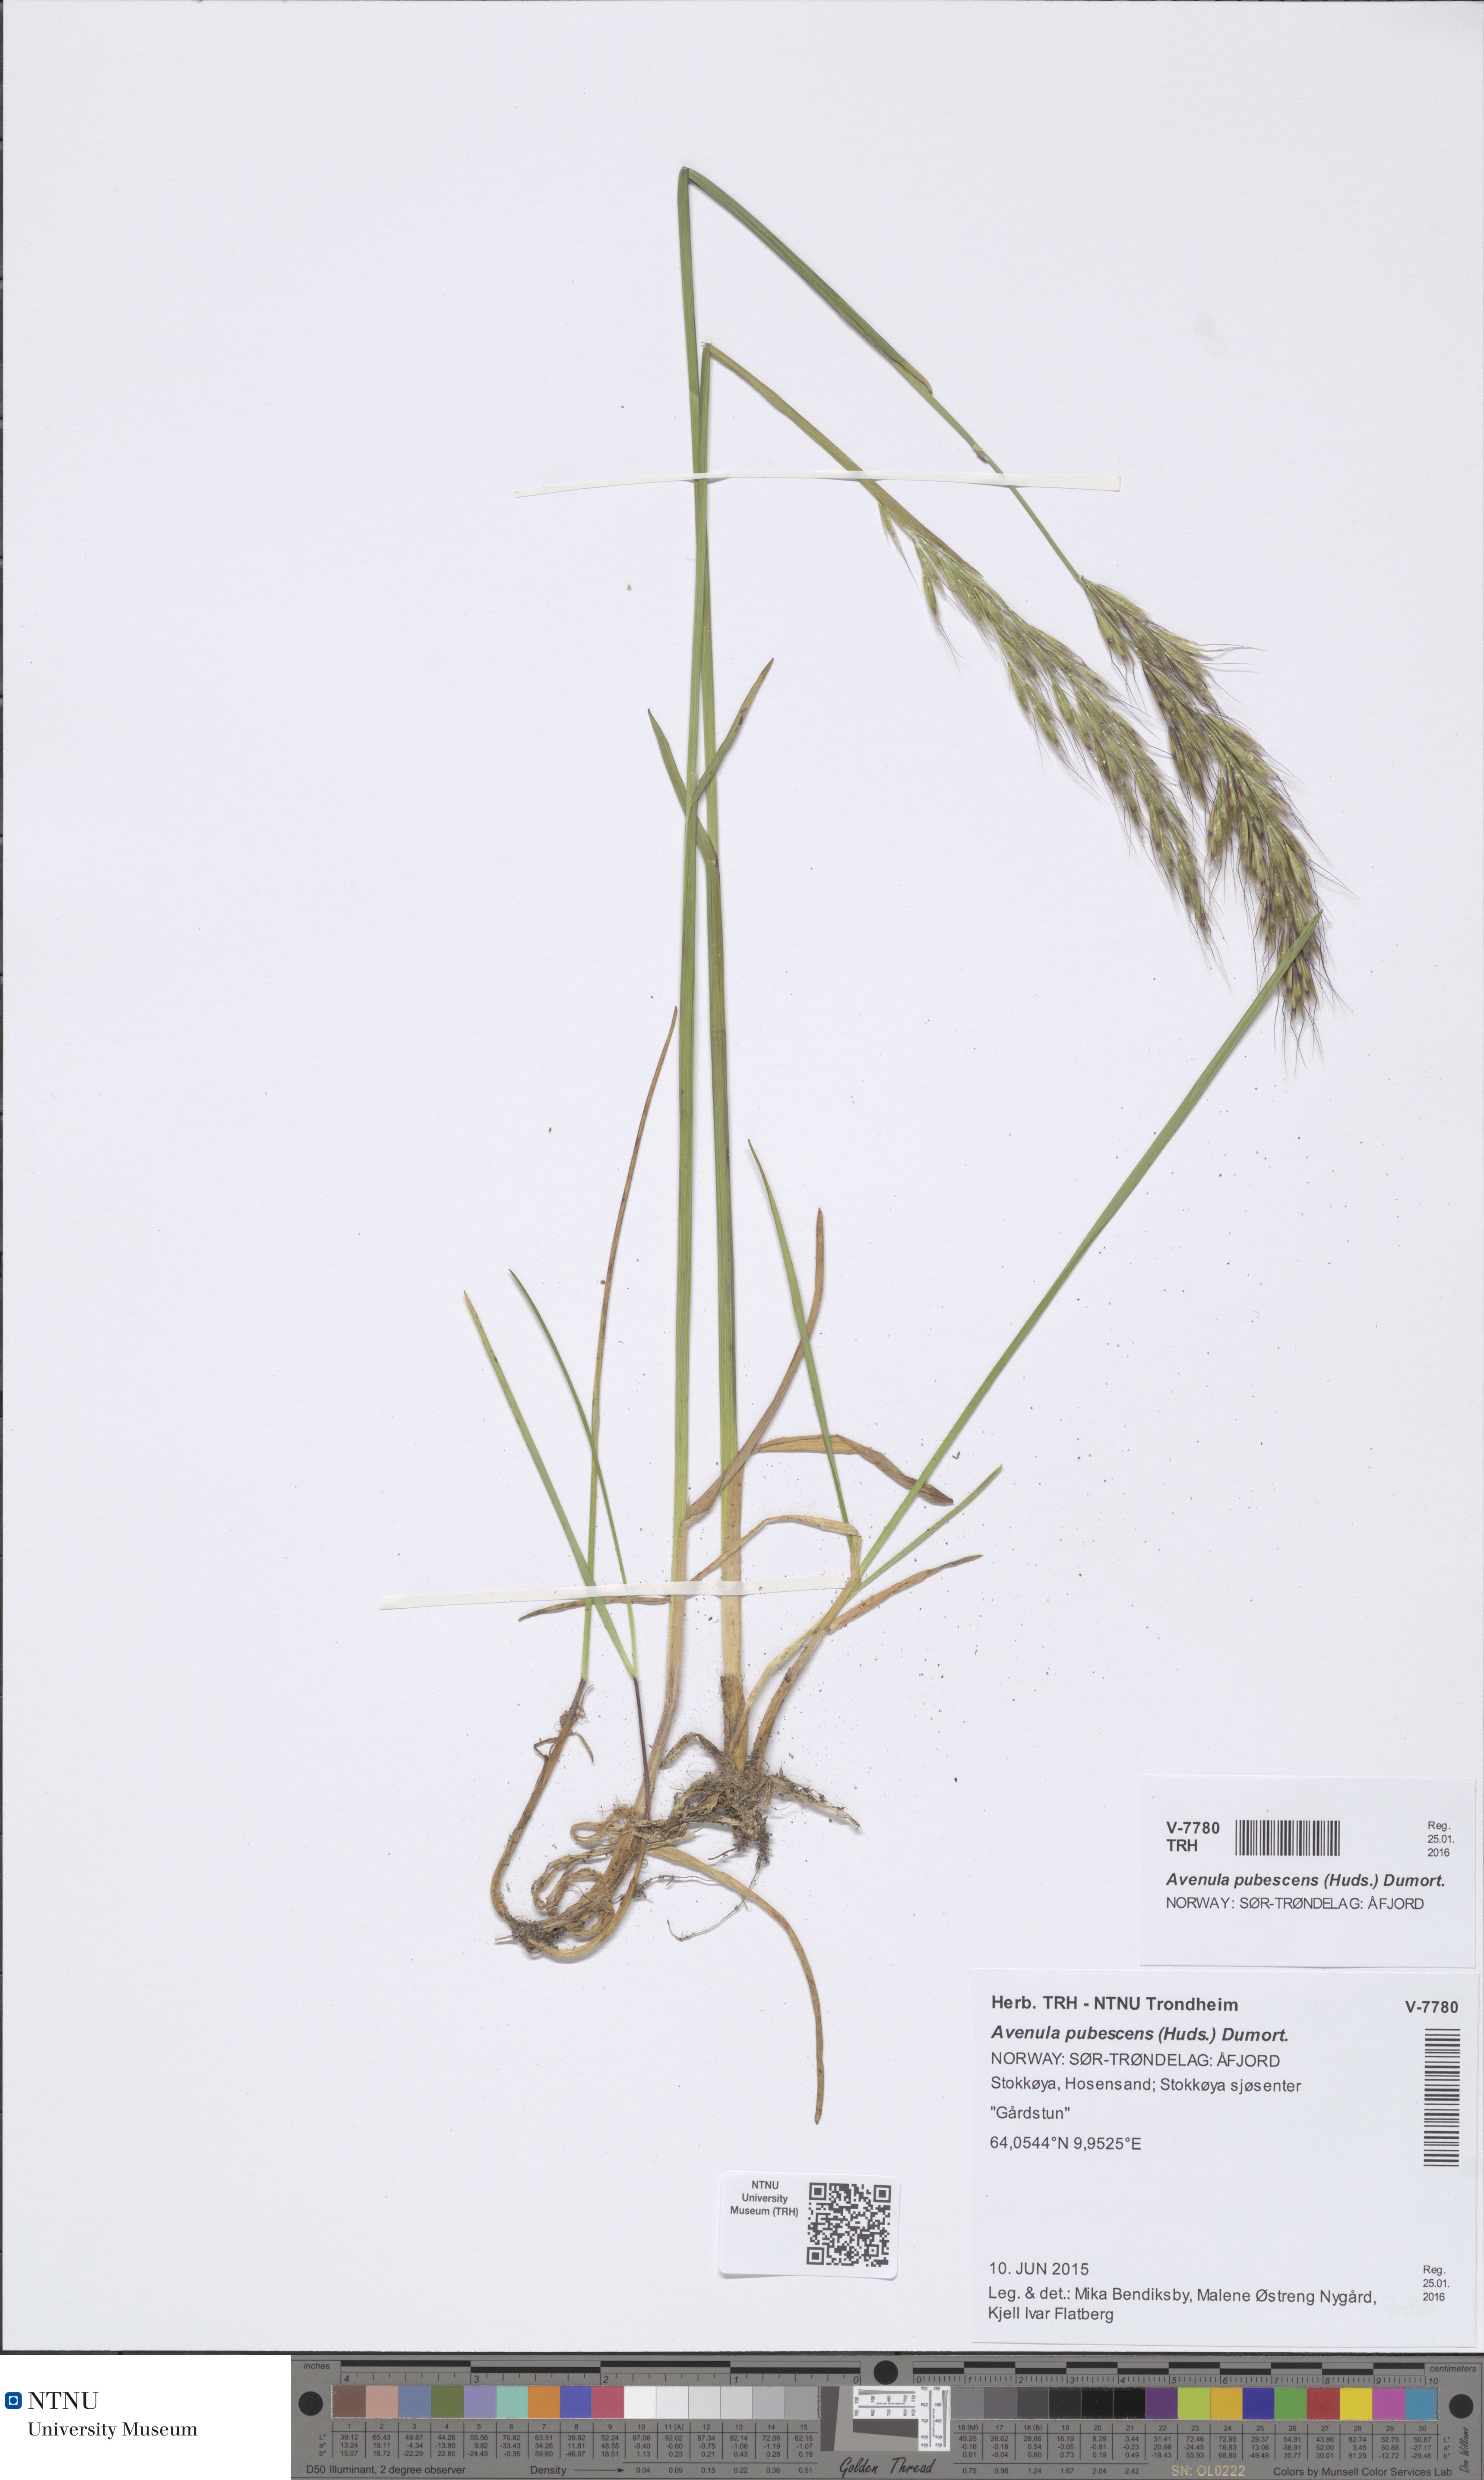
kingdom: Plantae
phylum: Tracheophyta
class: Liliopsida
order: Poales
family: Poaceae
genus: Avenula
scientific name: Avenula pubescens
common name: Downy alpine oatgrass
